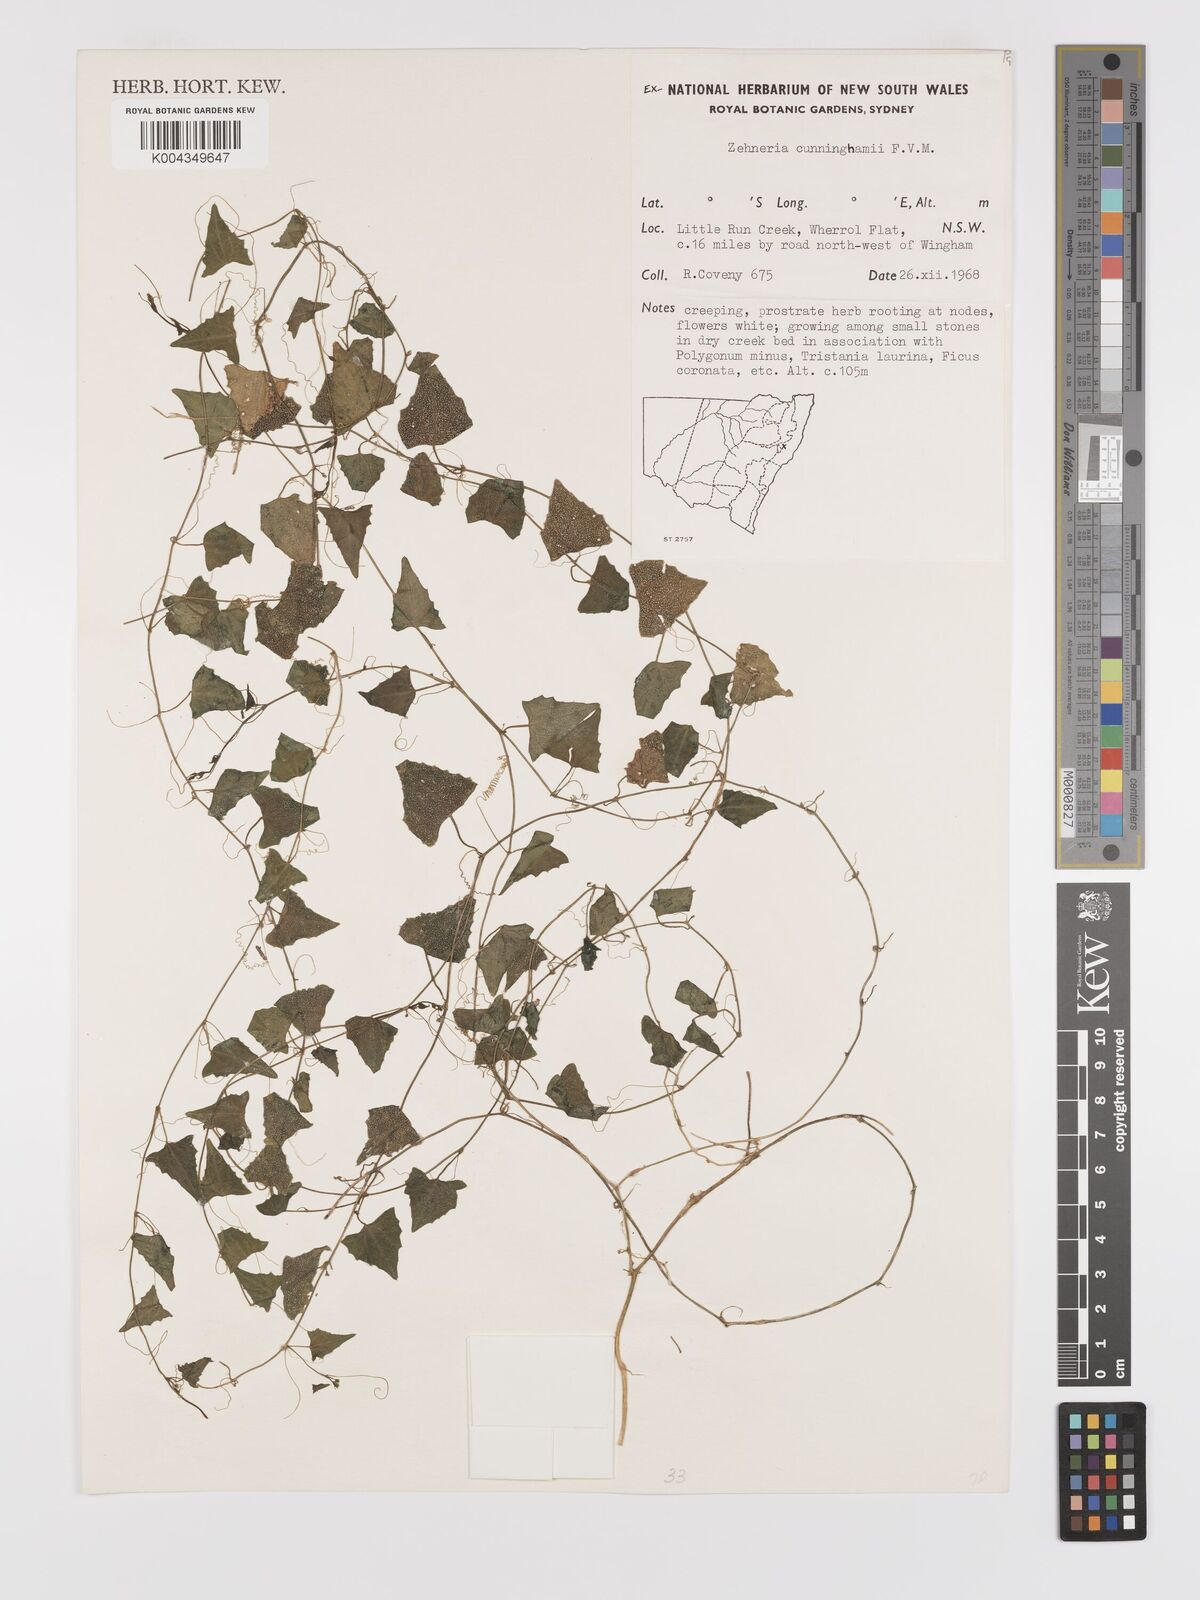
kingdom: Plantae
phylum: Tracheophyta
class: Magnoliopsida
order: Cucurbitales
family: Cucurbitaceae
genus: Zehneria
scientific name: Zehneria cunninghamii
